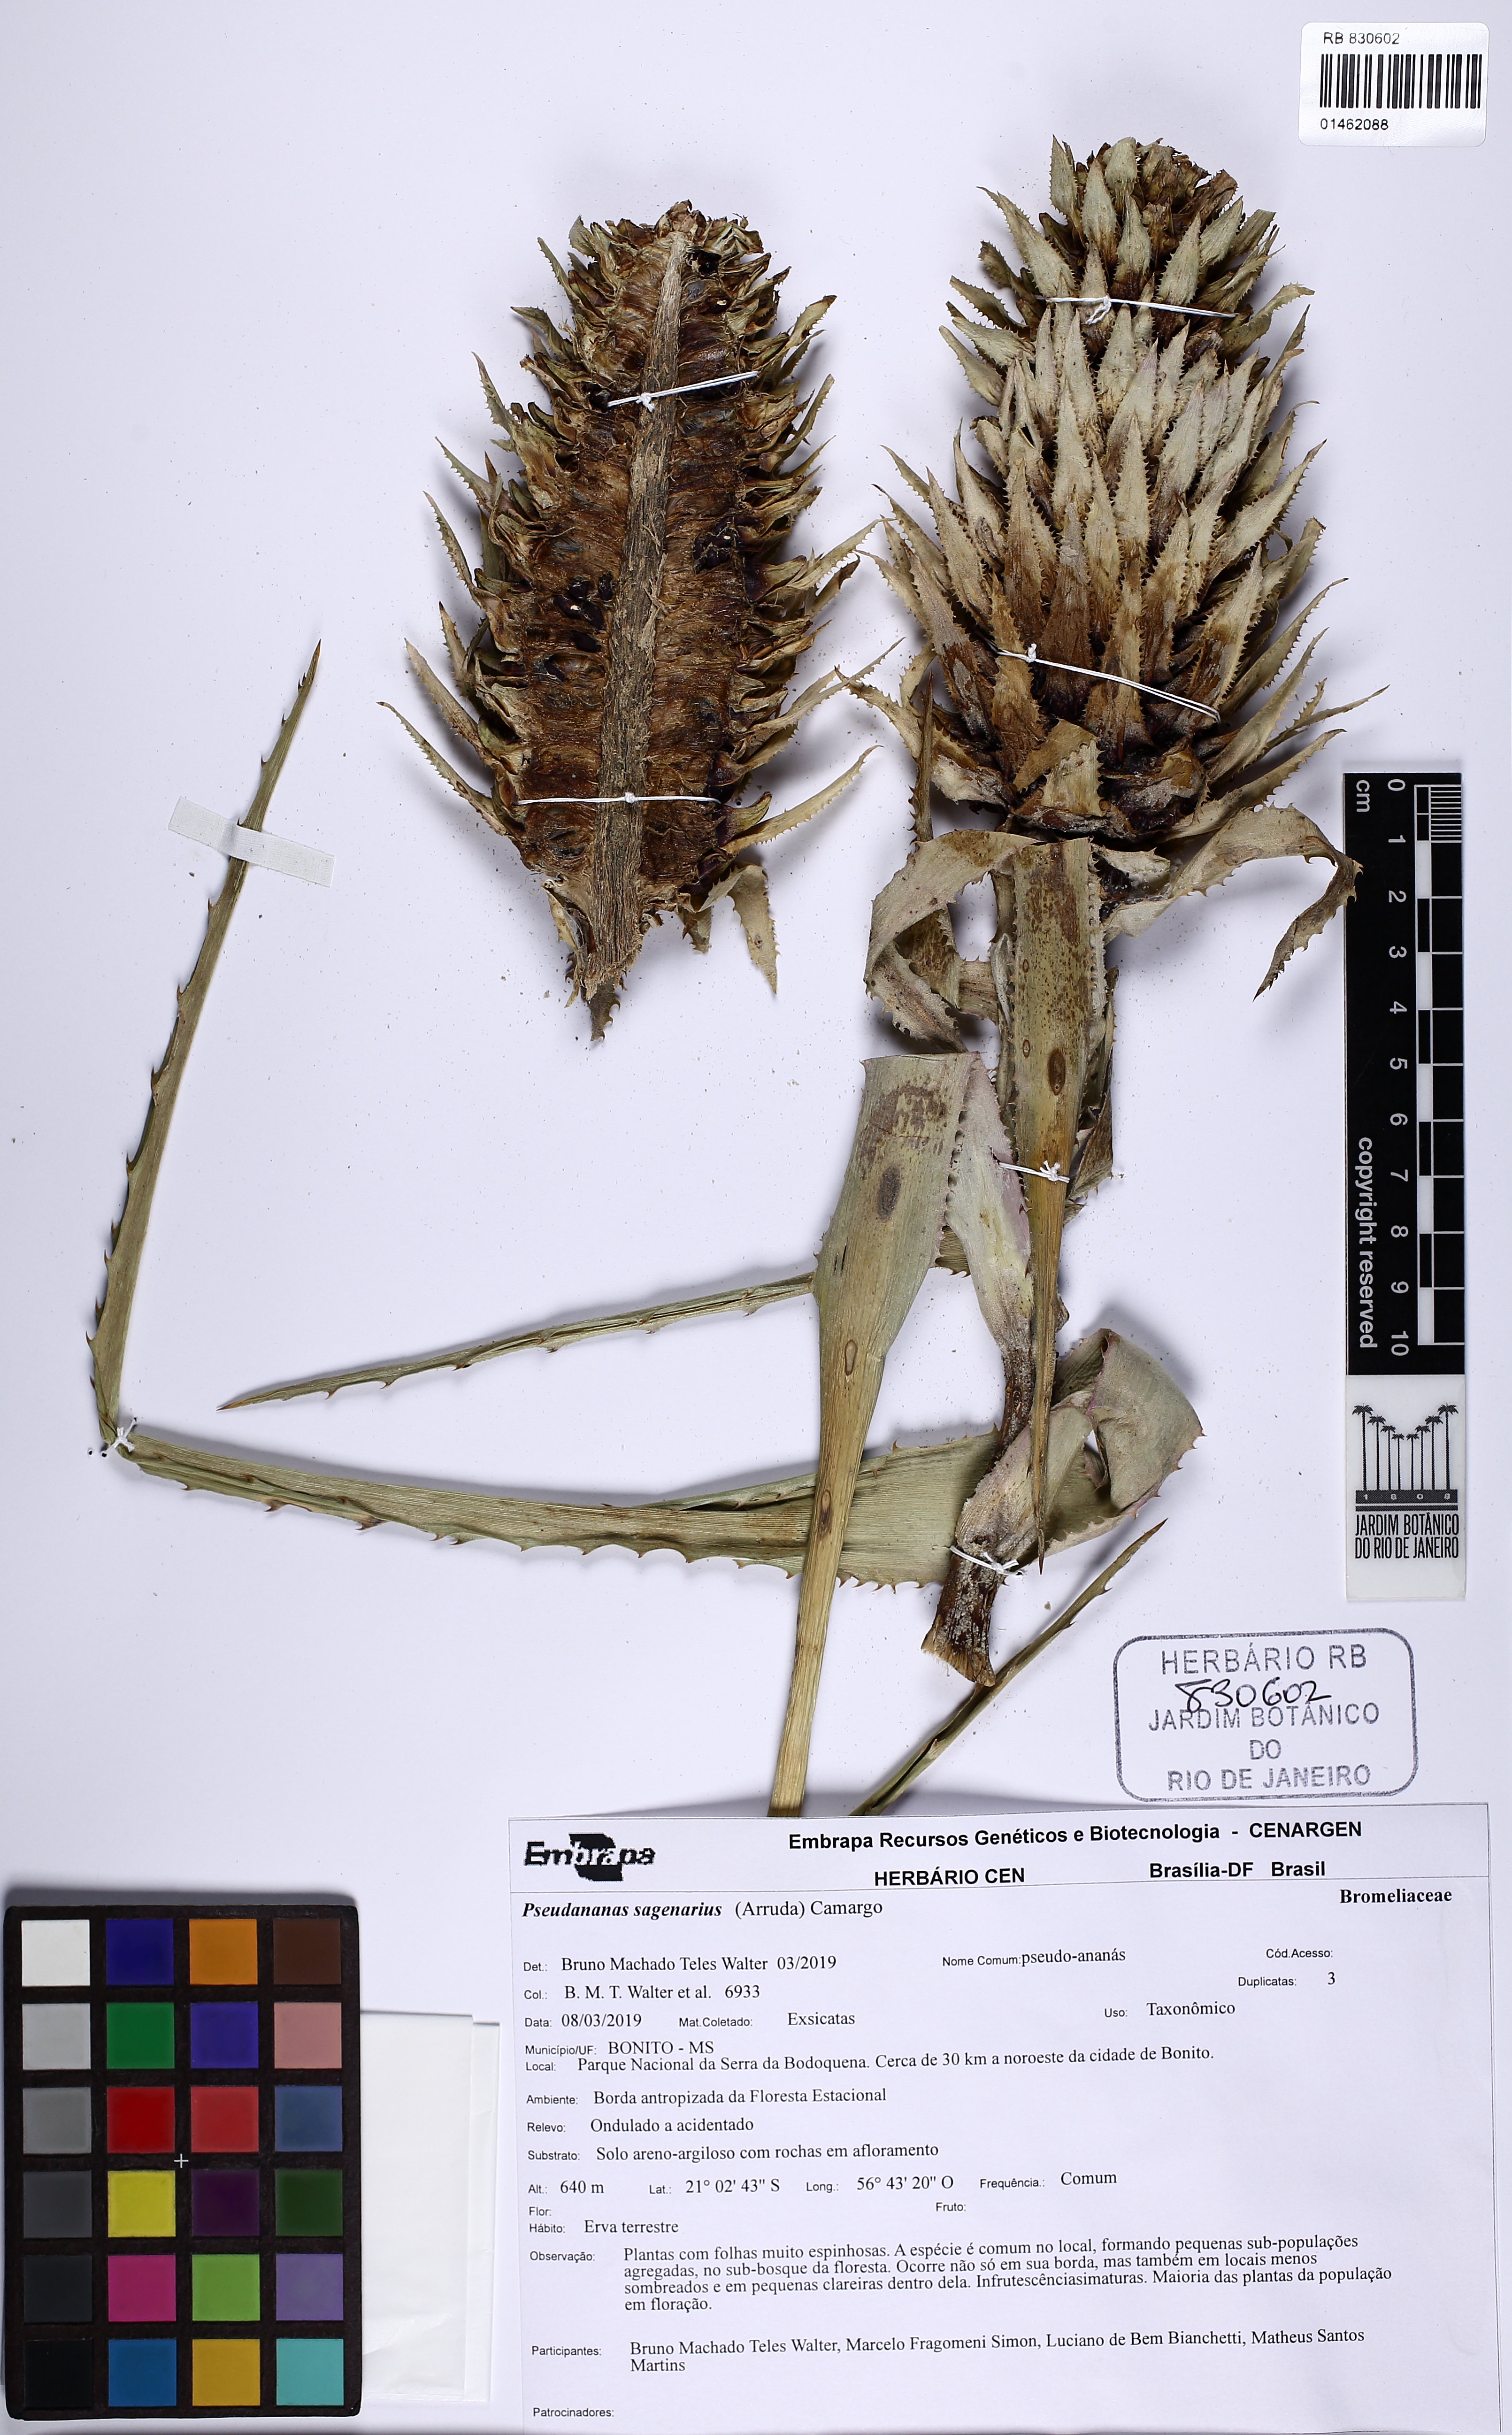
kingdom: Plantae
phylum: Tracheophyta
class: Liliopsida
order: Poales
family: Bromeliaceae
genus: Ananas
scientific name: Ananas comosus
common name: Pineapple
